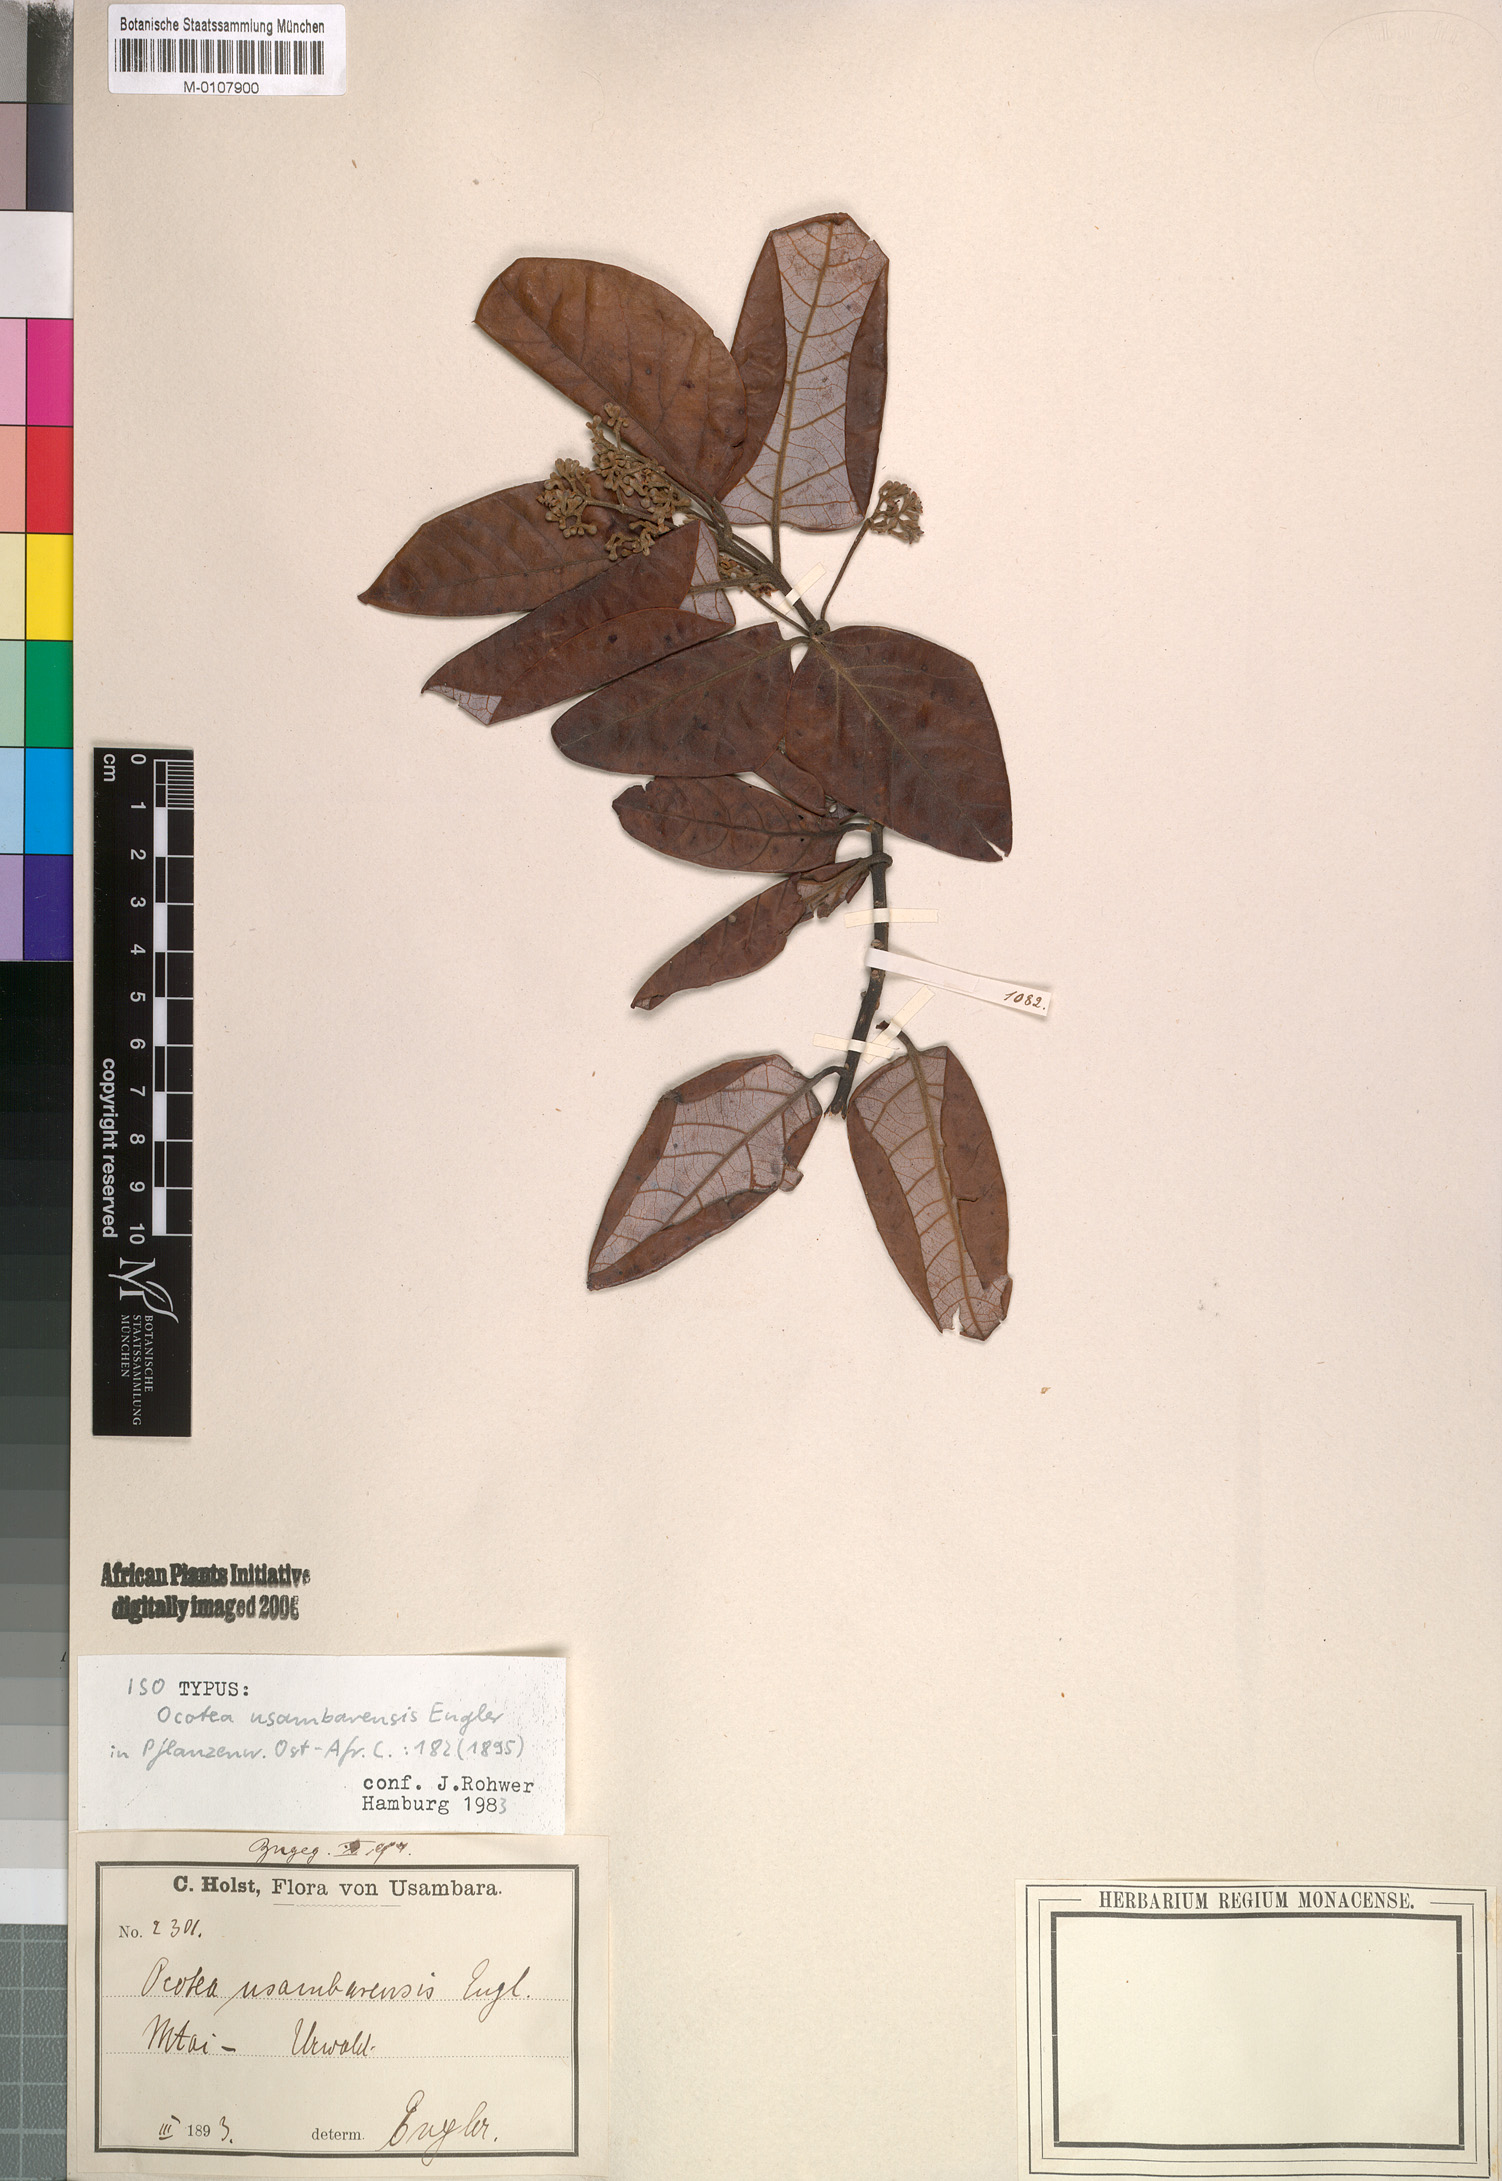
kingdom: Plantae
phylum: Tracheophyta
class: Magnoliopsida
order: Laurales
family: Lauraceae
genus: Kuloa
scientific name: Kuloa usambarensis
